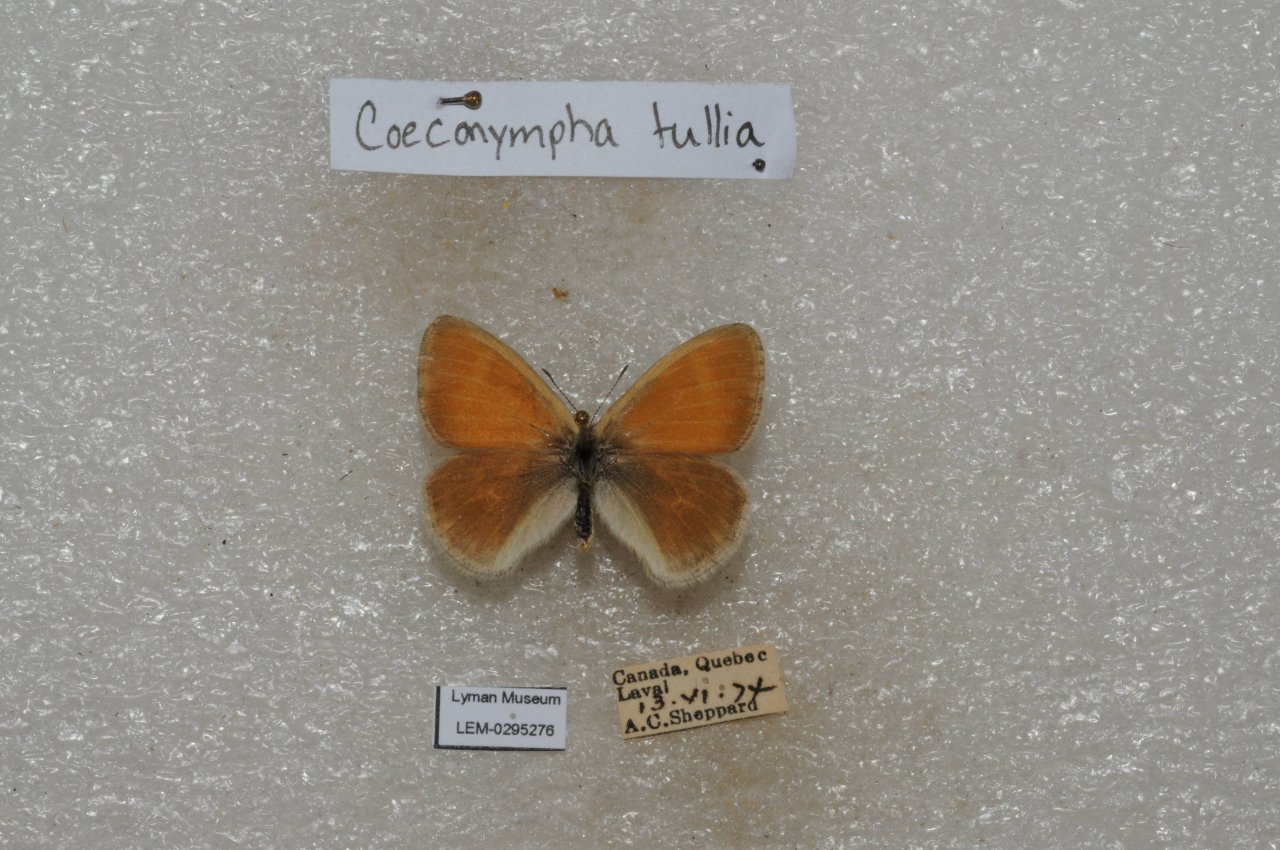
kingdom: Animalia
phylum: Arthropoda
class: Insecta
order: Lepidoptera
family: Nymphalidae
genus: Coenonympha
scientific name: Coenonympha tullia
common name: Large Heath
